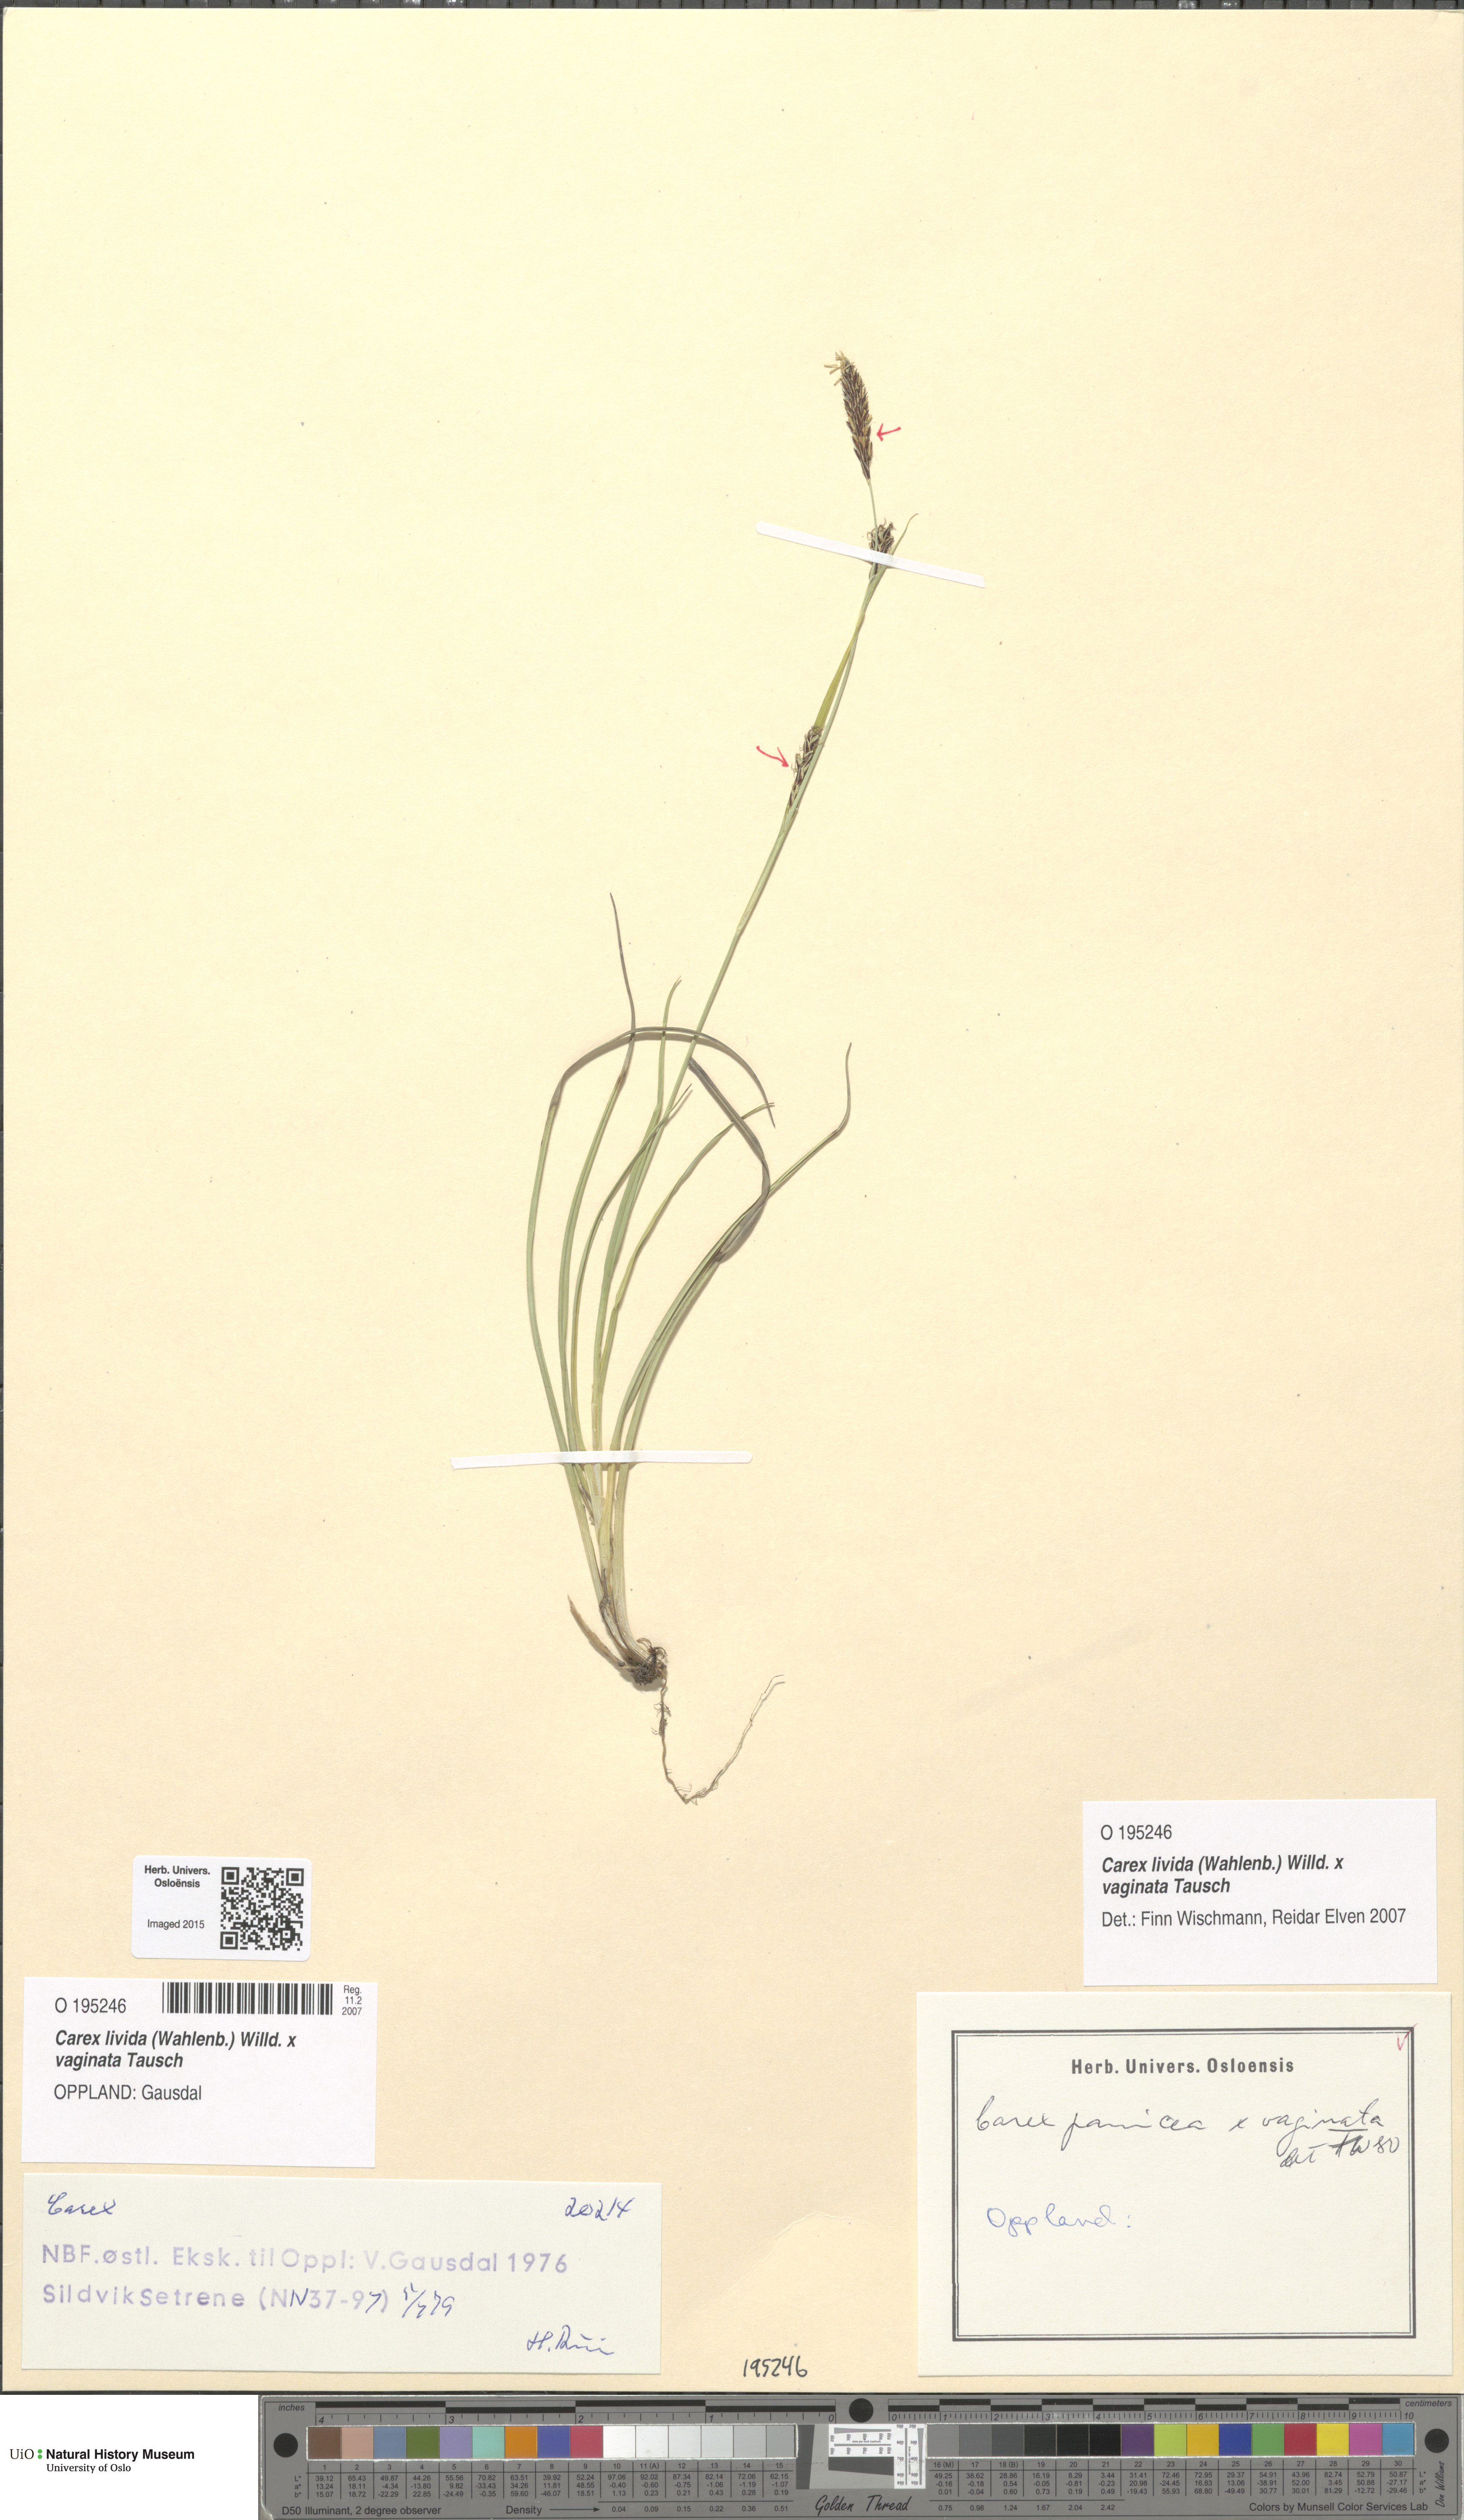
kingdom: Plantae
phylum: Tracheophyta
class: Liliopsida
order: Poales
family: Cyperaceae
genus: Carex
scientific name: Carex
